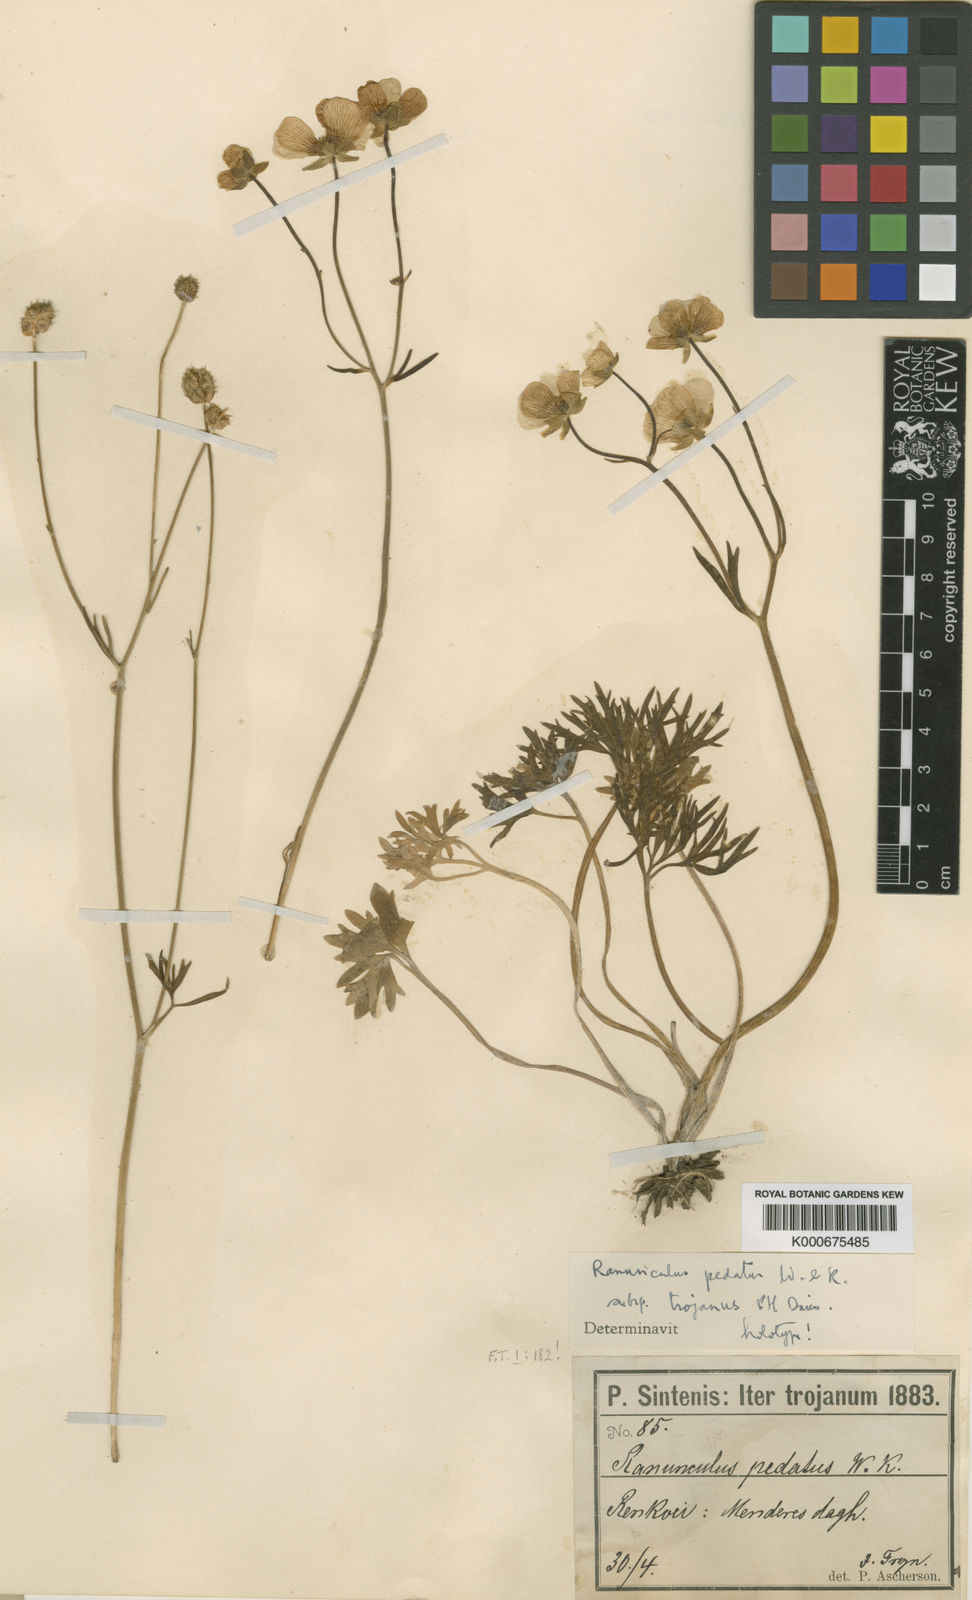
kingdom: Plantae
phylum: Tracheophyta
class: Magnoliopsida
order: Ranunculales
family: Ranunculaceae
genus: Ranunculus
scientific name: Ranunculus pedatus
